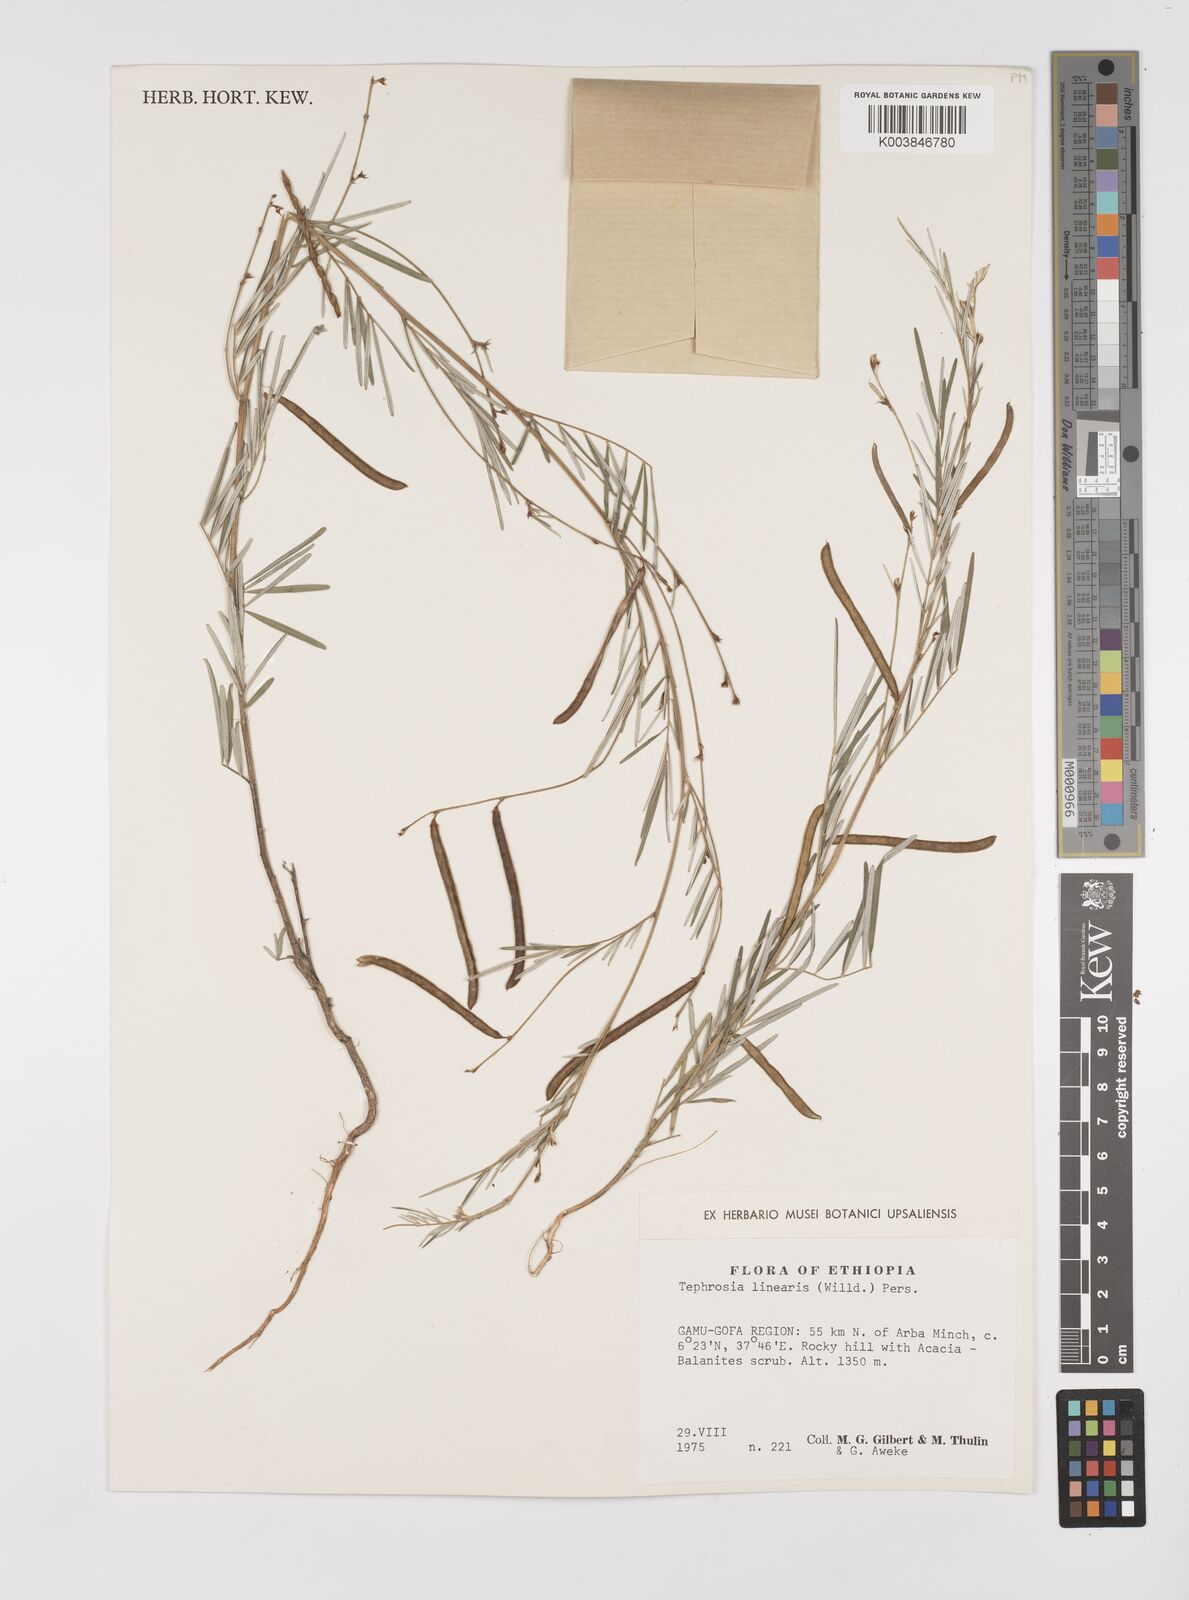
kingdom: Plantae
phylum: Tracheophyta
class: Magnoliopsida
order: Fabales
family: Fabaceae
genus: Tephrosia
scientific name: Tephrosia linearis
